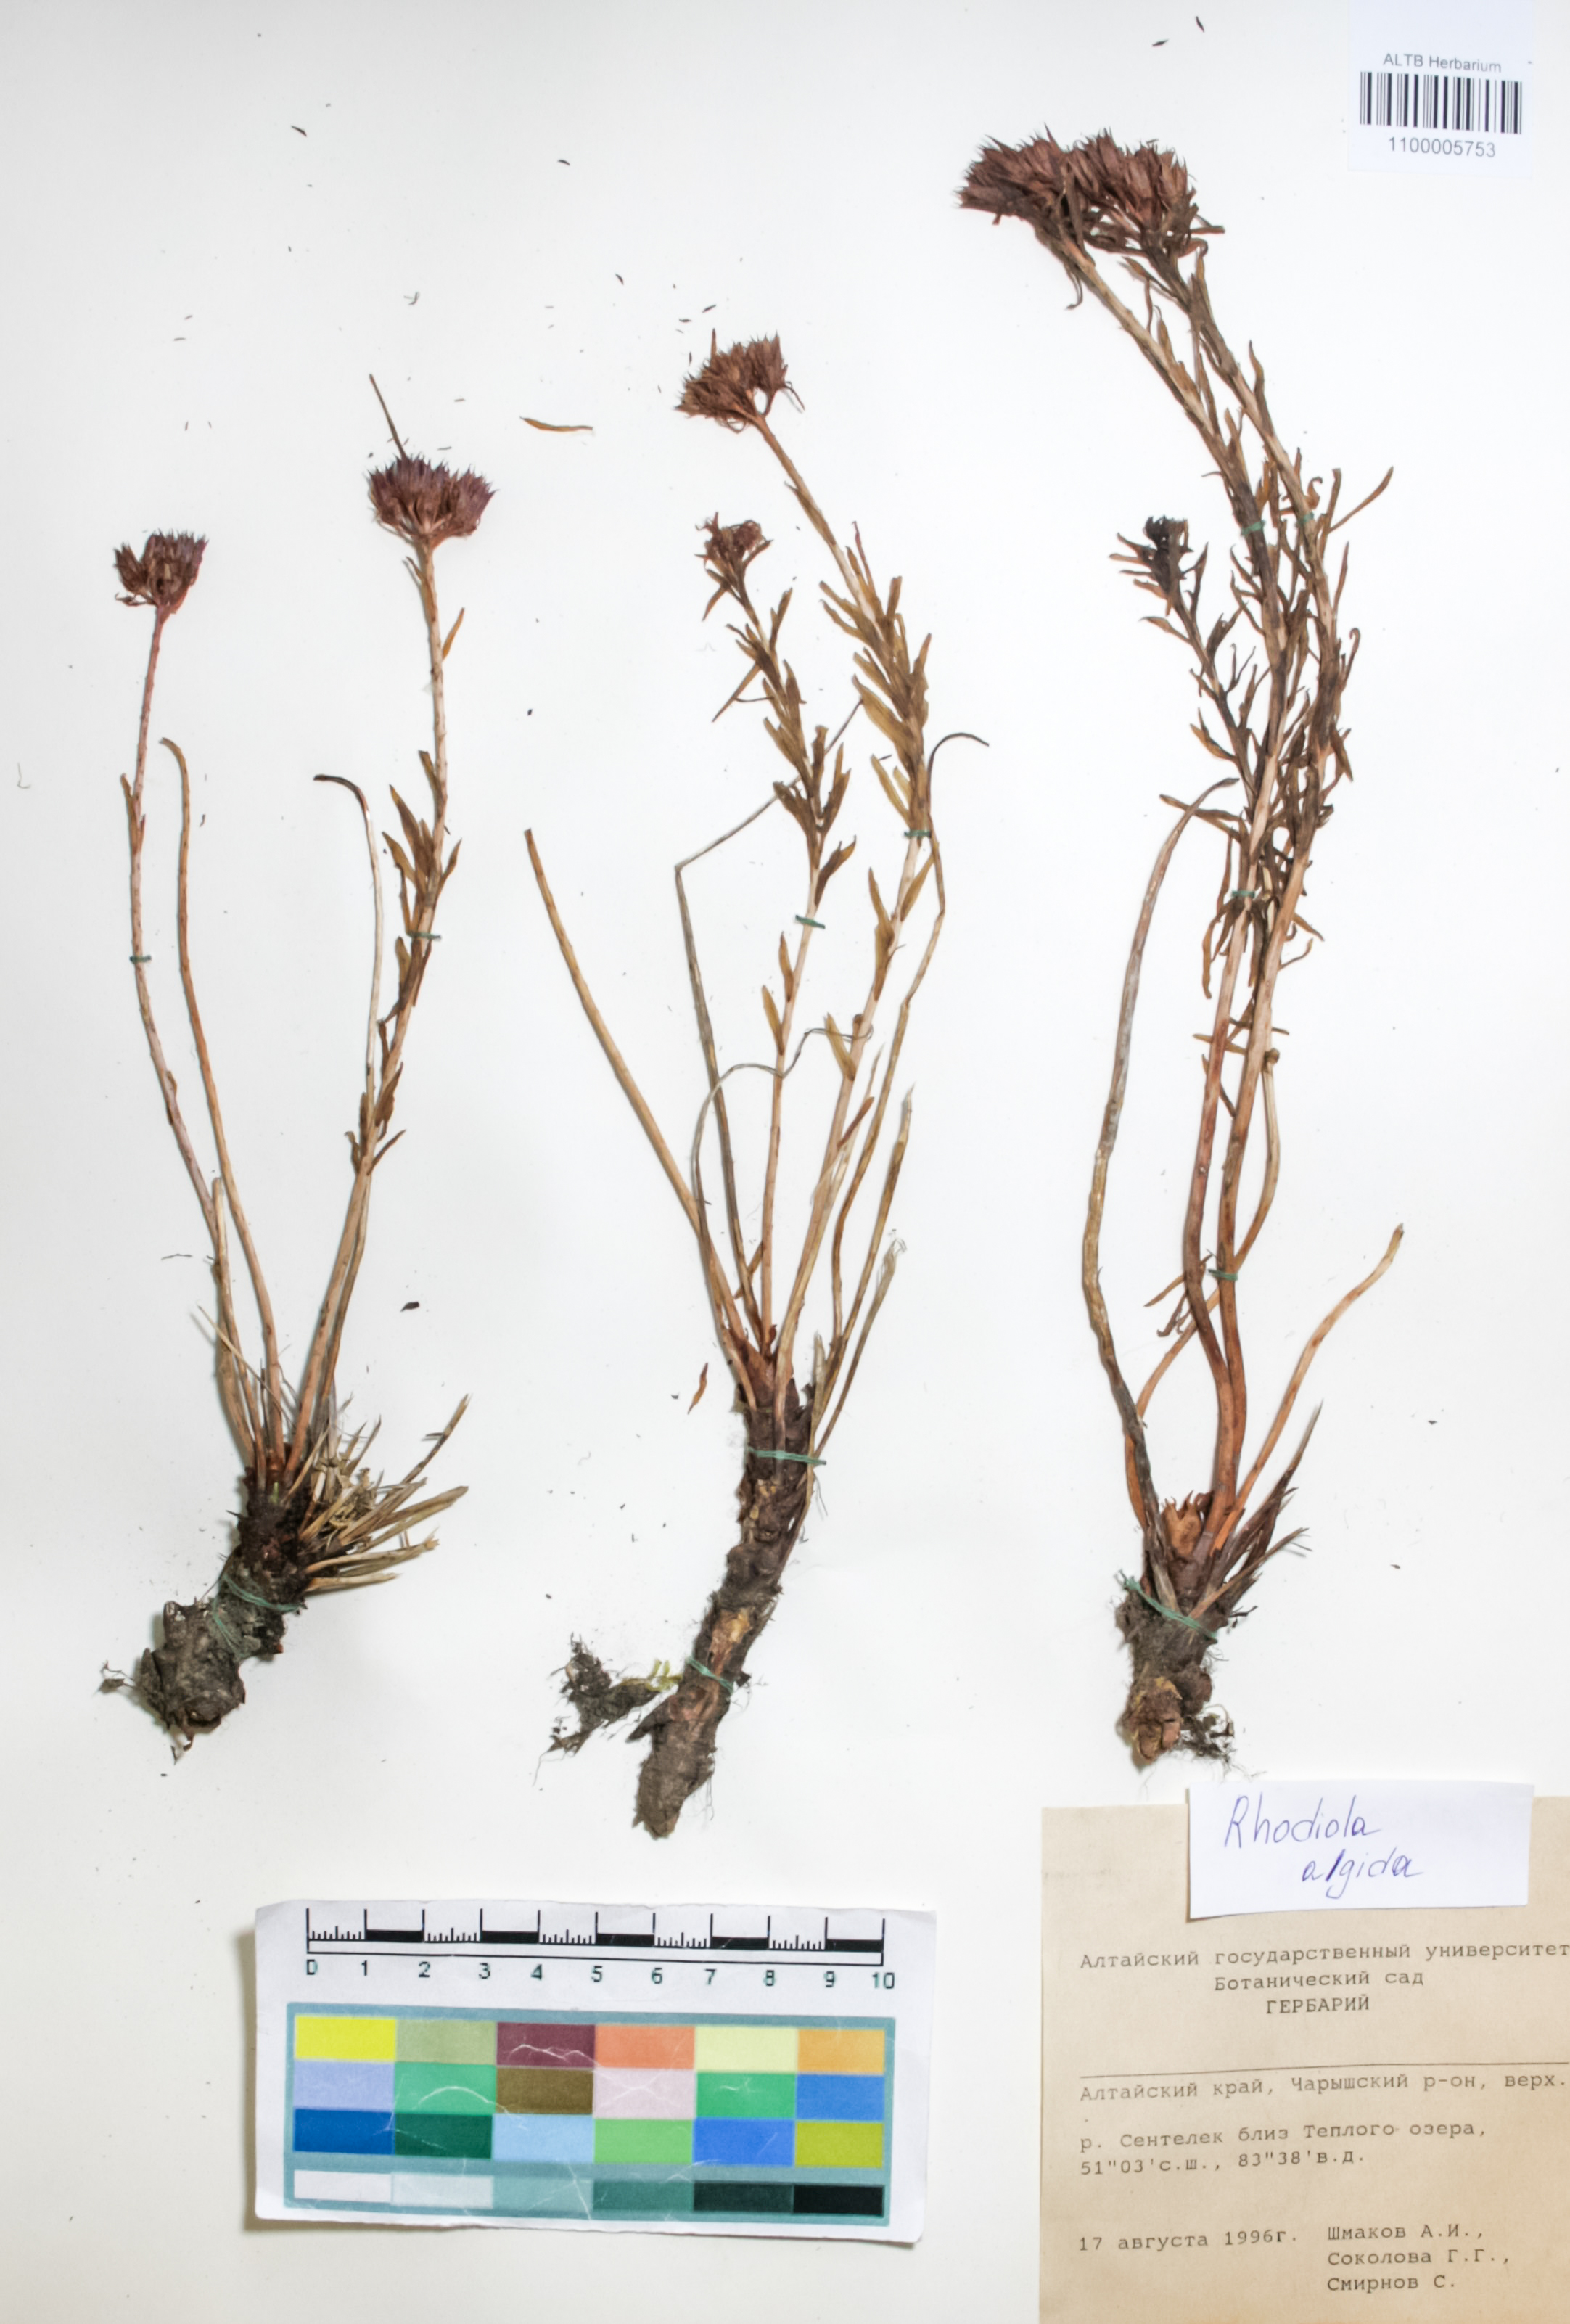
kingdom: Plantae
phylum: Tracheophyta
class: Magnoliopsida
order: Saxifragales
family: Crassulaceae
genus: Rhodiola
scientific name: Rhodiola algida
